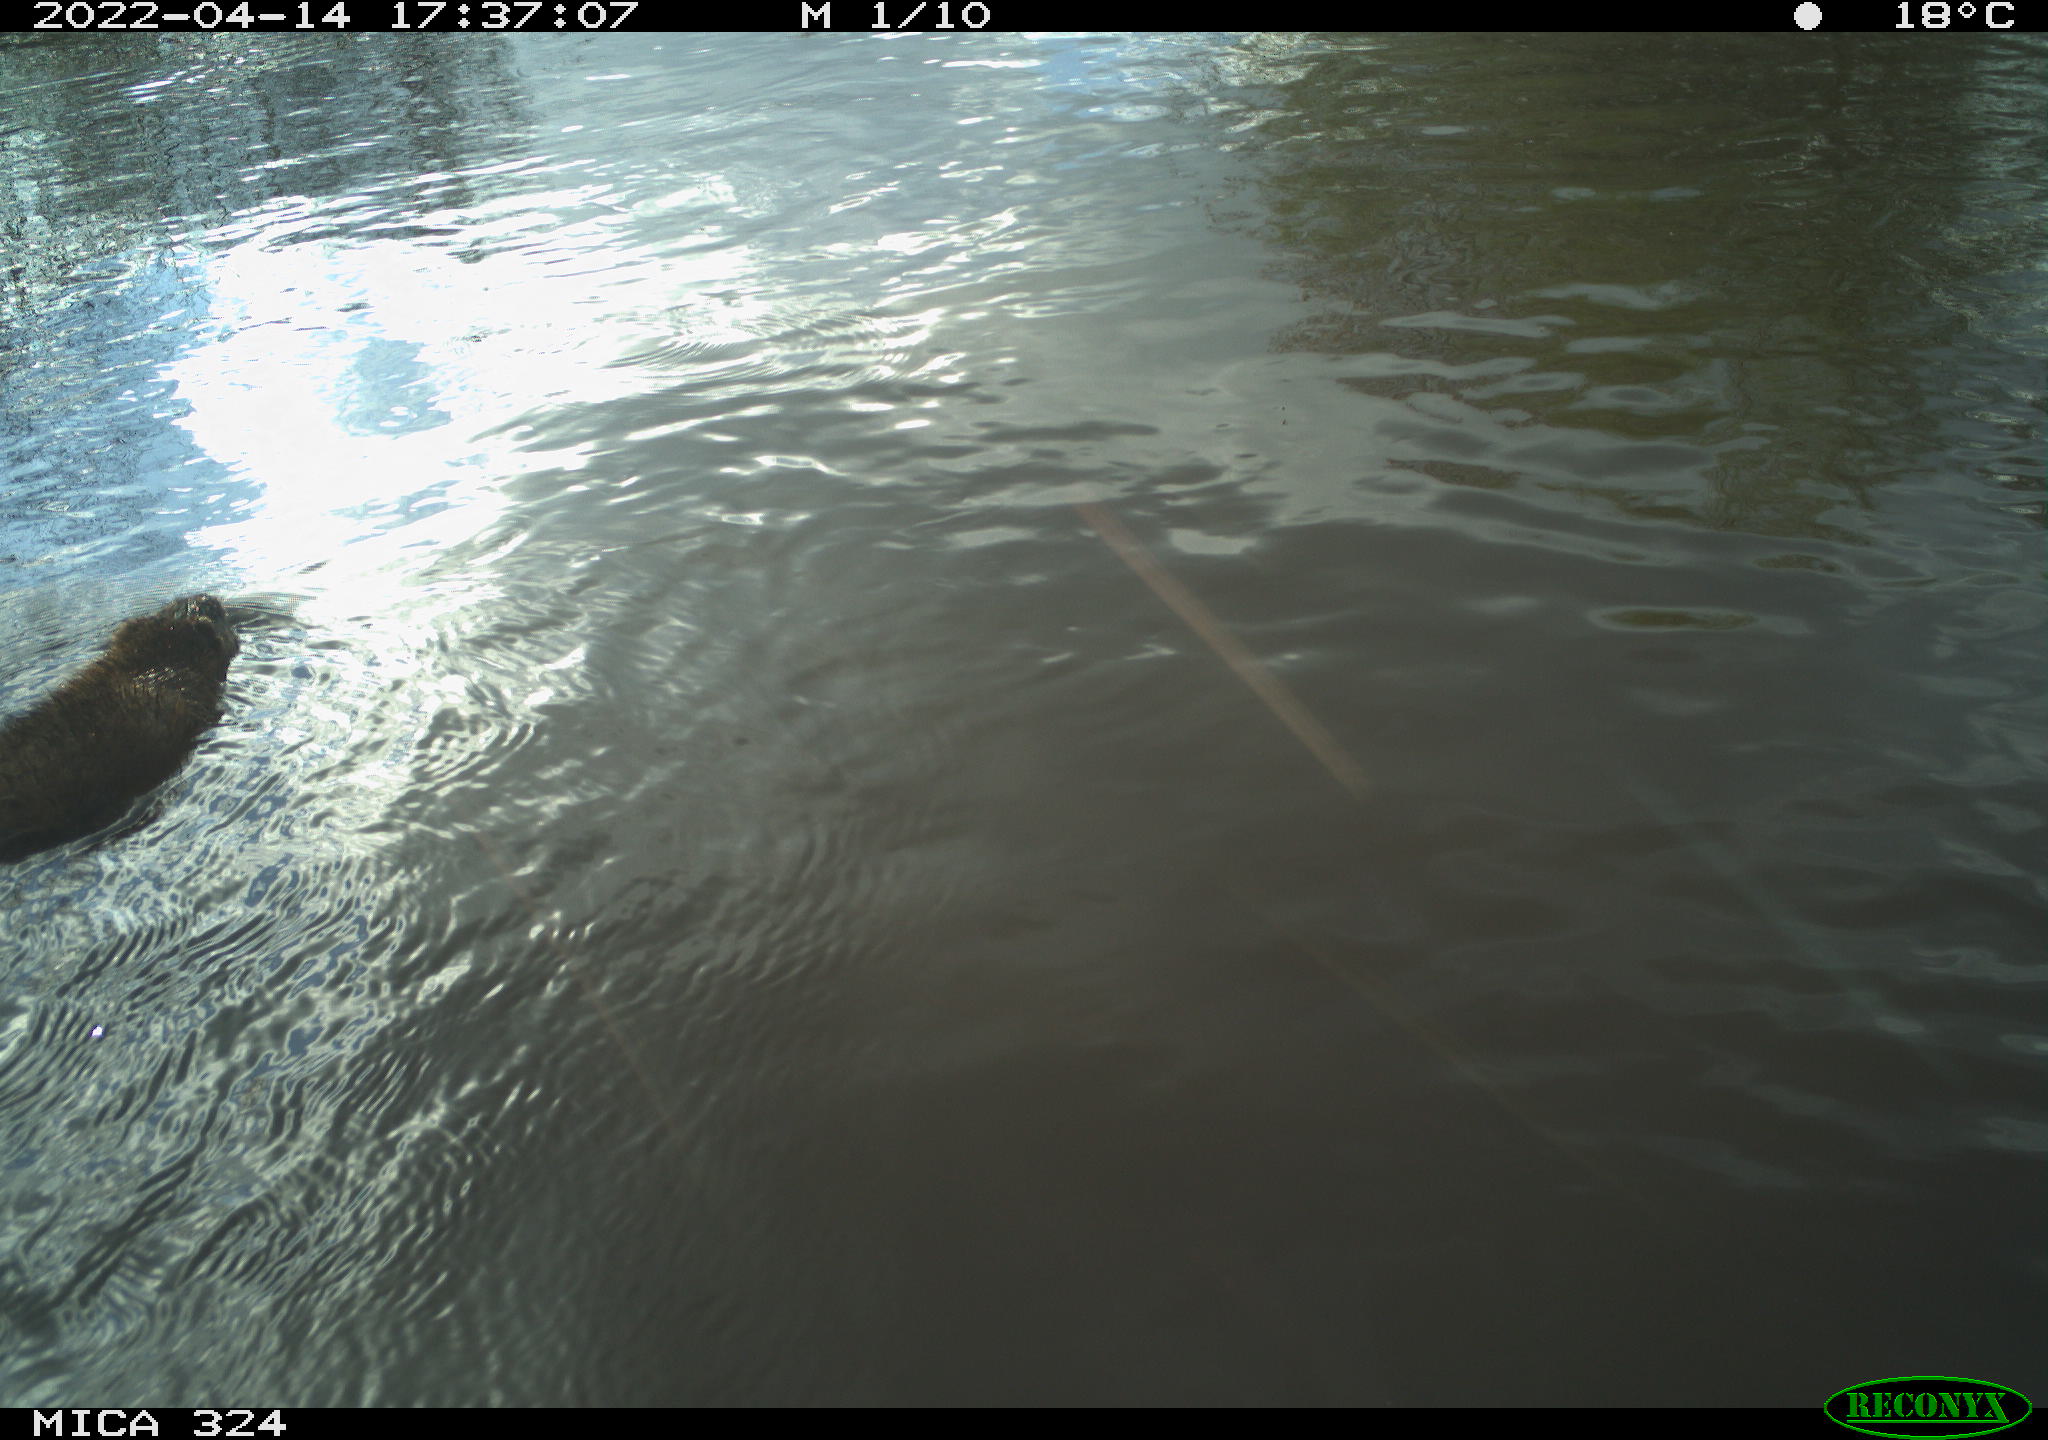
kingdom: Animalia
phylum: Chordata
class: Mammalia
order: Rodentia
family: Cricetidae
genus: Ondatra
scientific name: Ondatra zibethicus
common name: Muskrat
